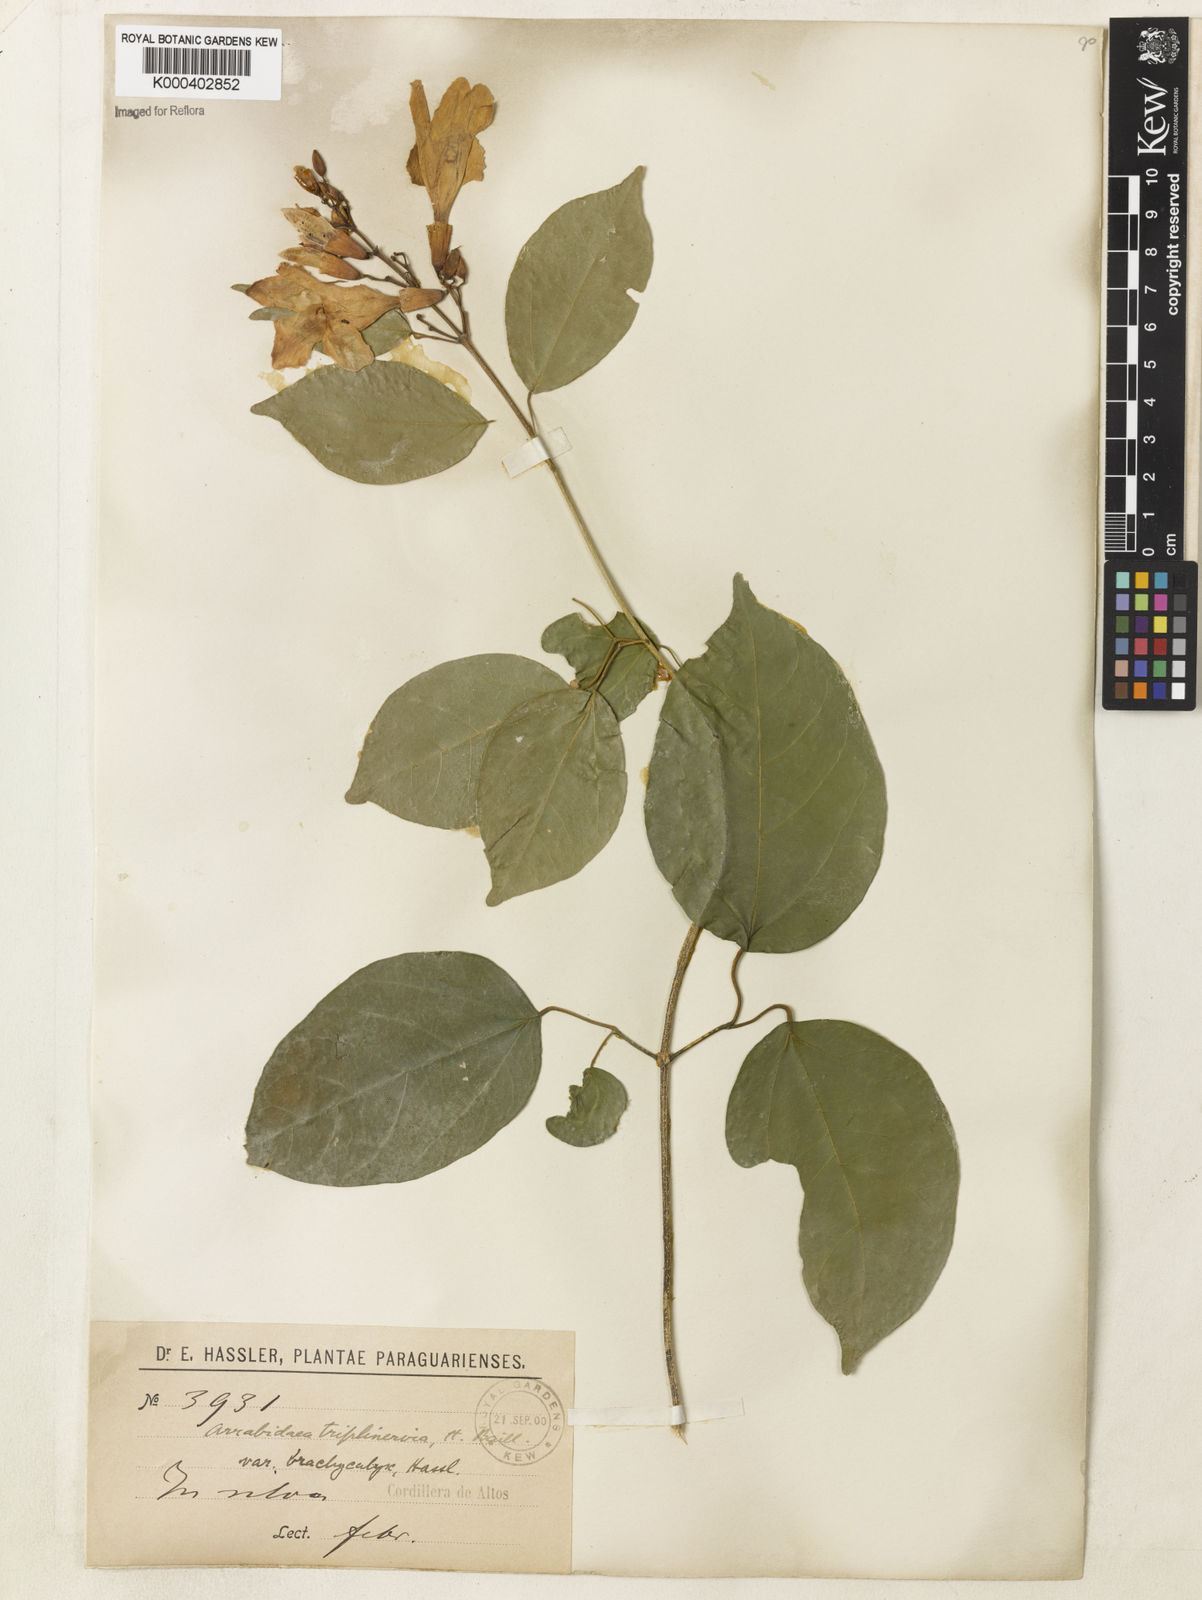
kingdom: Plantae
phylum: Tracheophyta
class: Magnoliopsida
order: Lamiales
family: Bignoniaceae
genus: Fridericia
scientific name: Fridericia triplinervia
